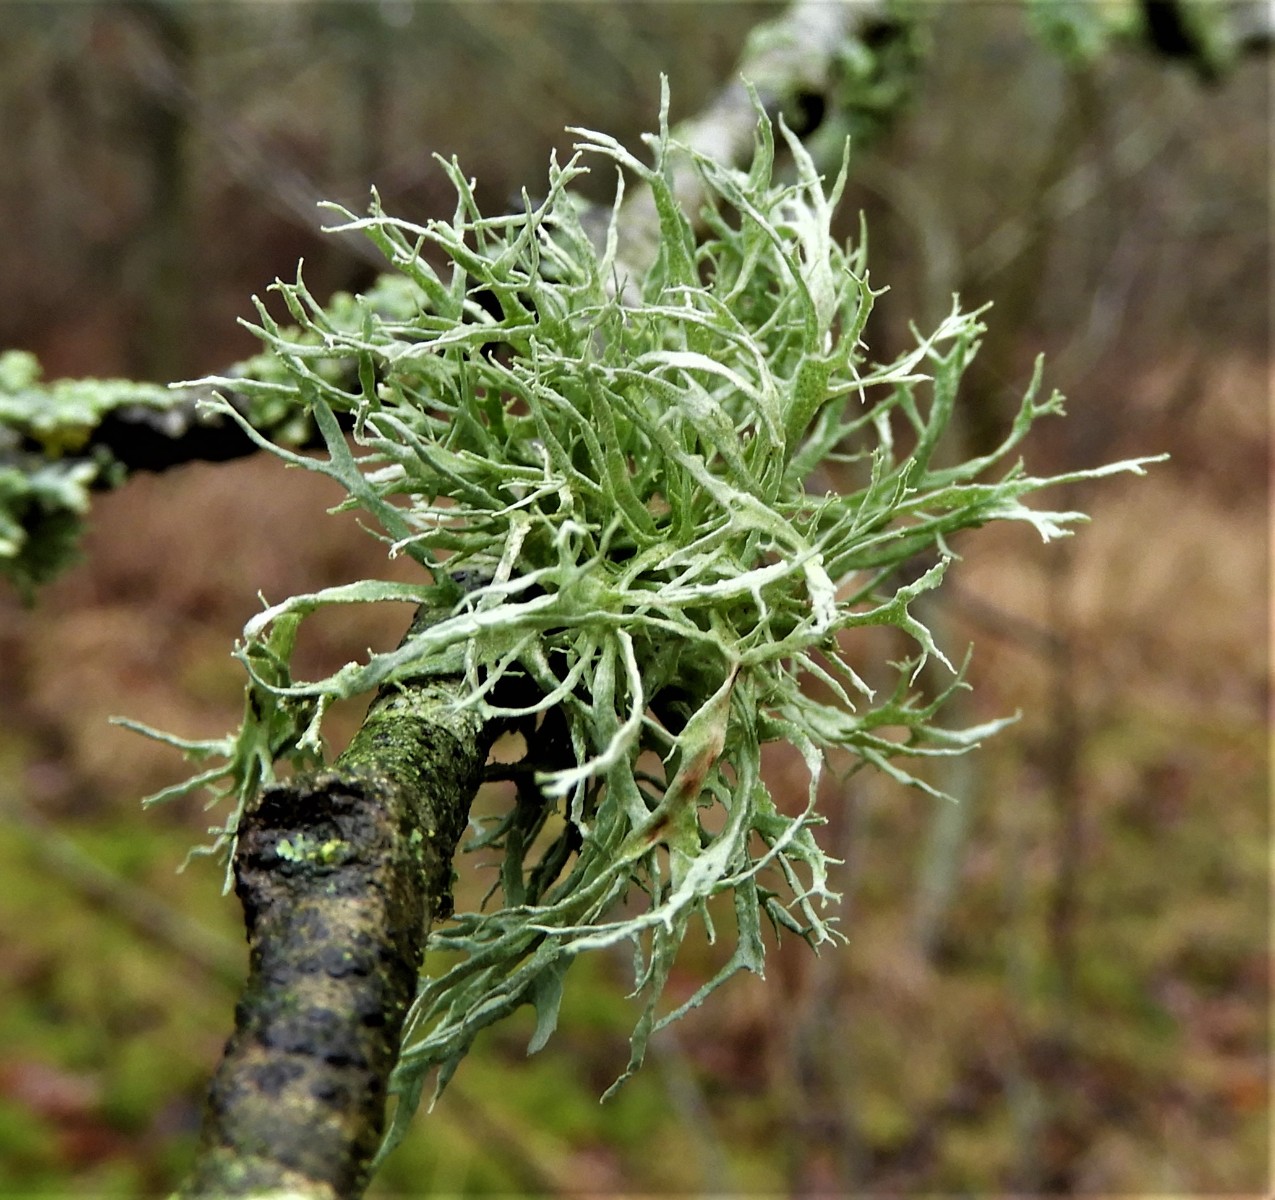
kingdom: Fungi
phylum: Ascomycota
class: Lecanoromycetes
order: Lecanorales
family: Ramalinaceae
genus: Ramalina
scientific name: Ramalina farinacea
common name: melet grenlav
